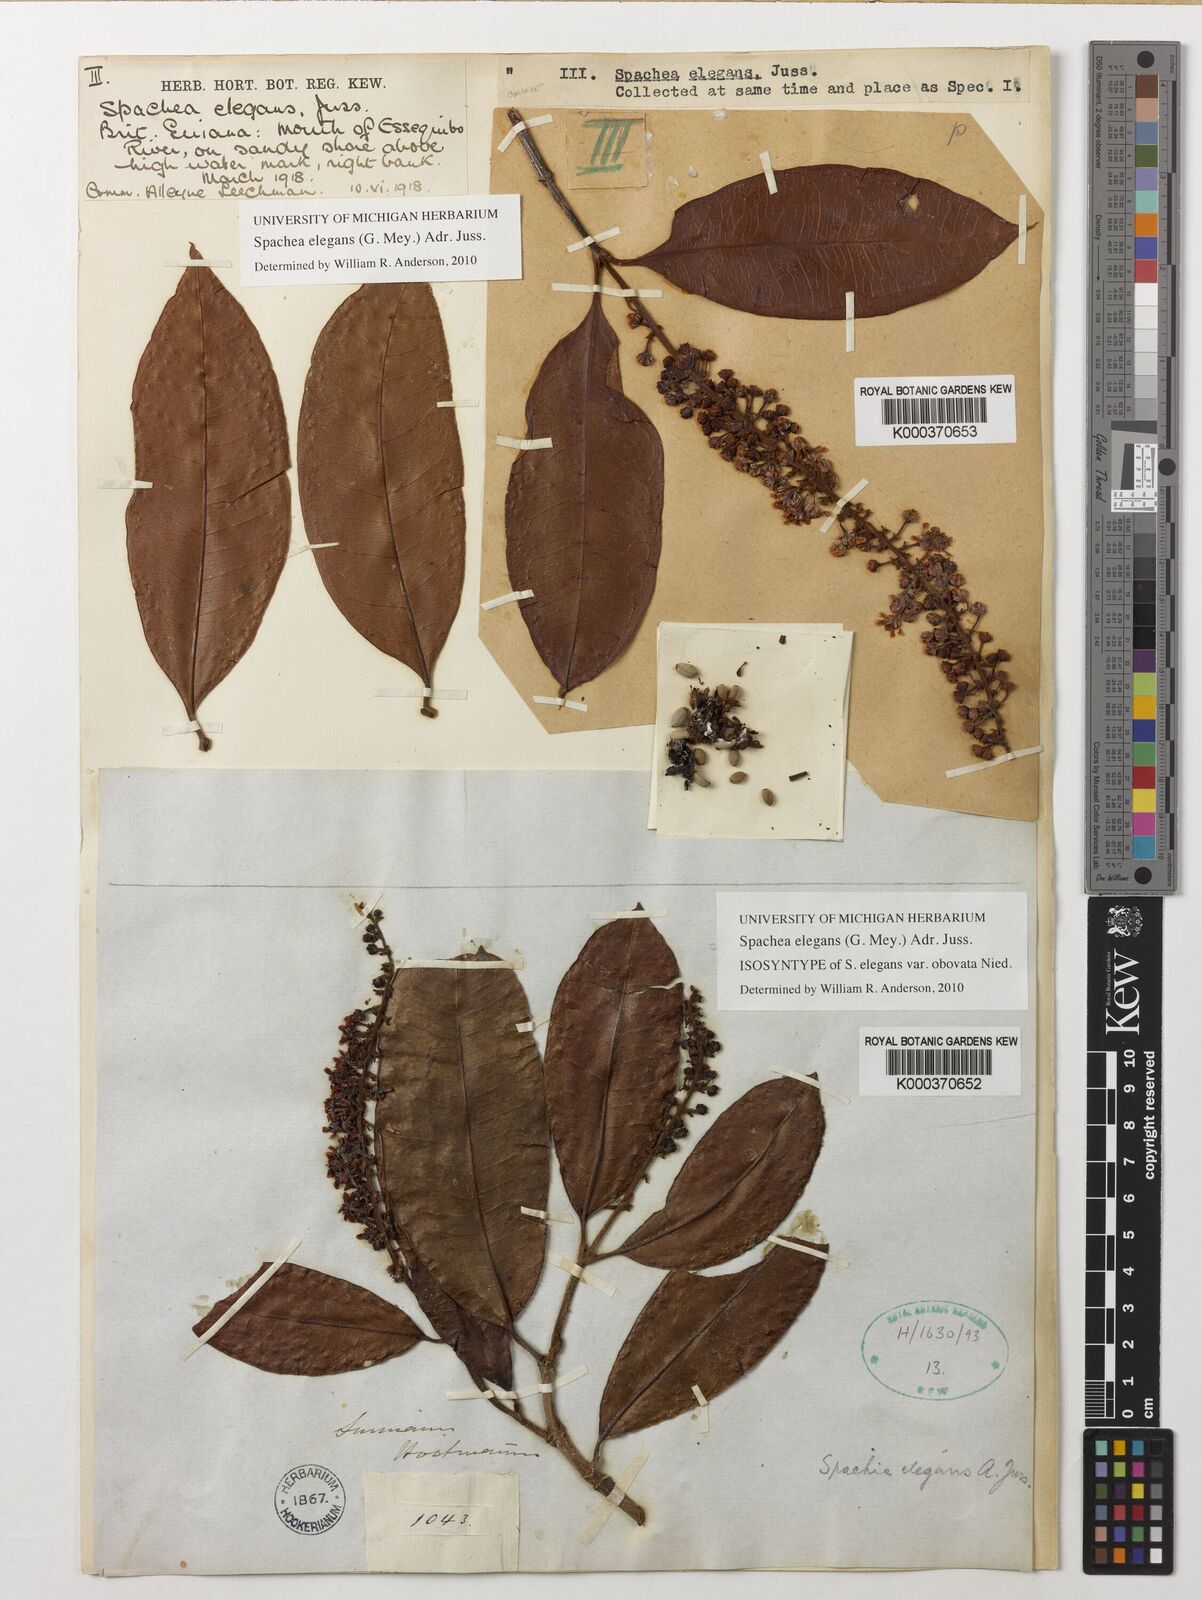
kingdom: Plantae
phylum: Tracheophyta
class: Magnoliopsida
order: Malpighiales
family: Malpighiaceae
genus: Spachea
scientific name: Spachea elegans
